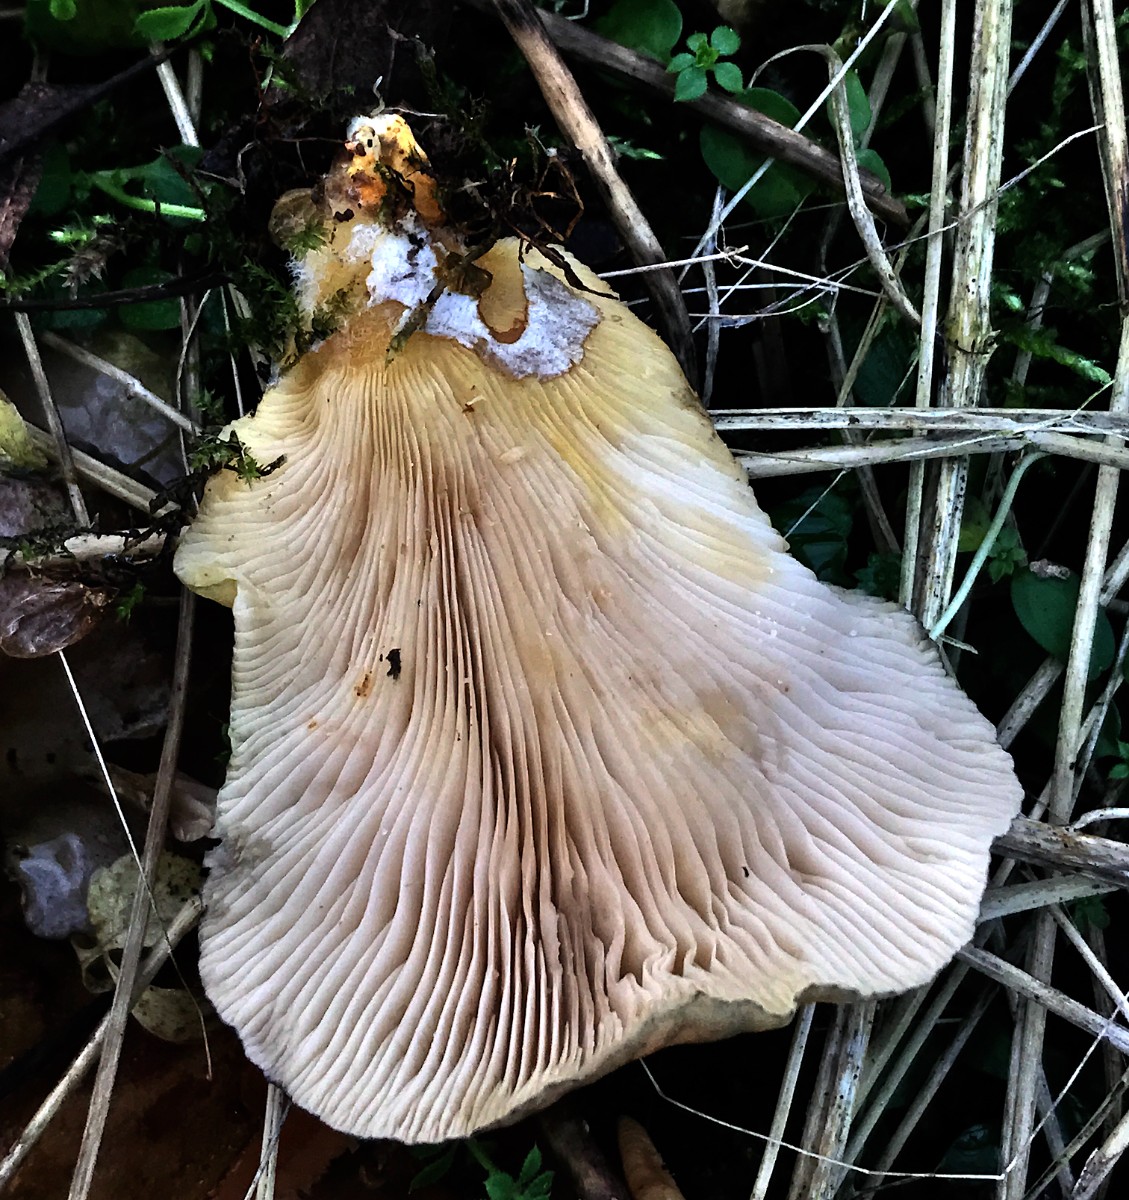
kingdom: Fungi
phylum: Basidiomycota
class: Agaricomycetes
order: Agaricales
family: Sarcomyxaceae
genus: Sarcomyxa
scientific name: Sarcomyxa serotina
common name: gummihat
